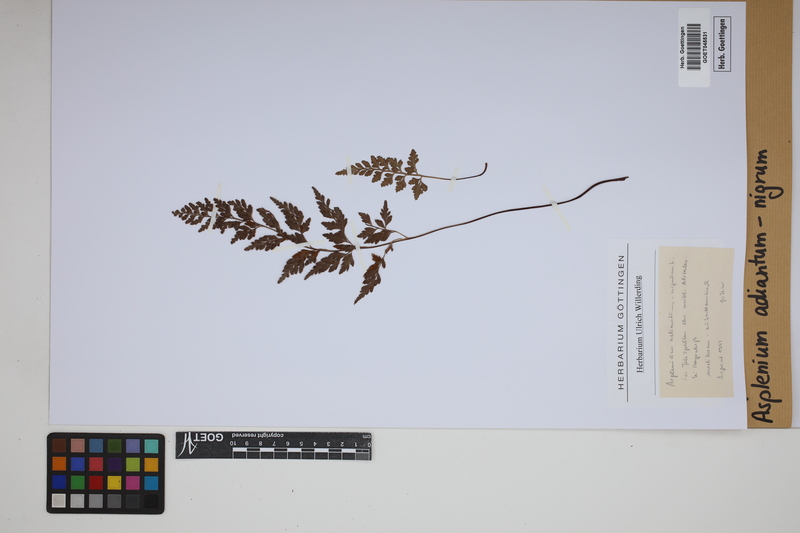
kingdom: Plantae
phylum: Tracheophyta
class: Polypodiopsida
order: Polypodiales
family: Aspleniaceae
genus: Asplenium
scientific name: Asplenium adiantum-nigrum
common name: Black spleenwort
